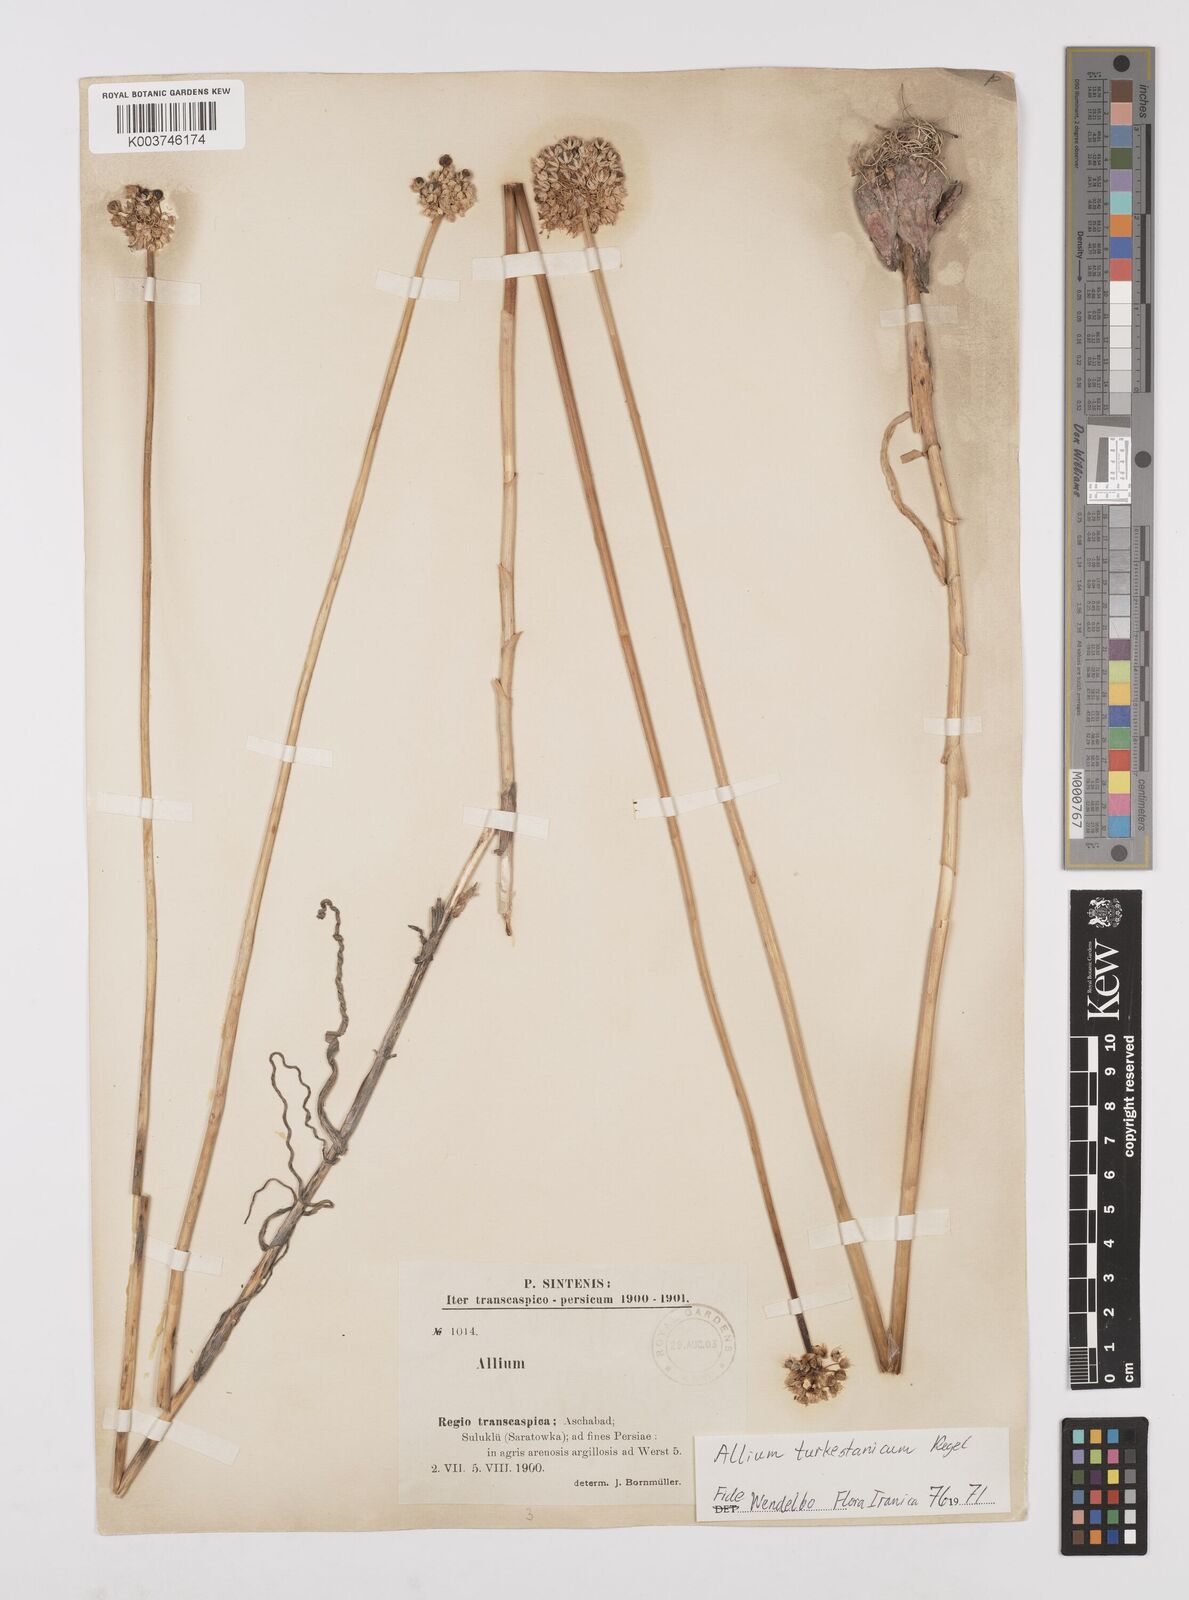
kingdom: Plantae
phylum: Tracheophyta
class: Liliopsida
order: Asparagales
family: Amaryllidaceae
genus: Allium
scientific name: Allium lehmannianum
